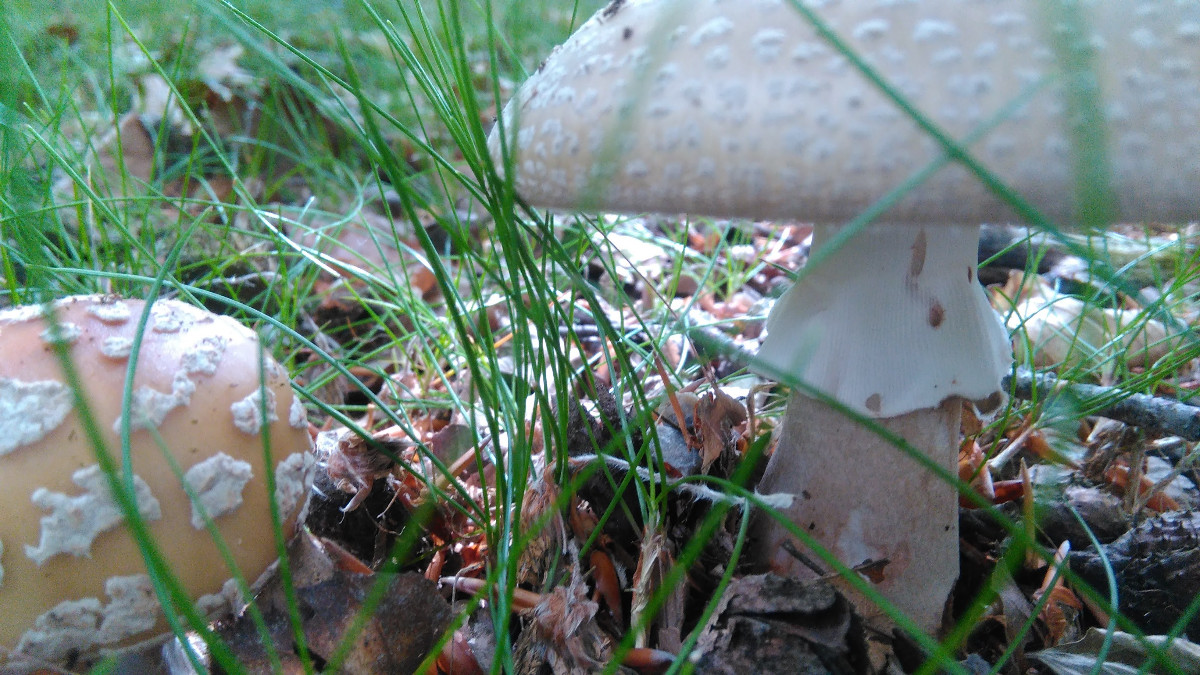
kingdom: Fungi
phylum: Basidiomycota
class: Agaricomycetes
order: Agaricales
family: Amanitaceae
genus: Amanita
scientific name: Amanita rubescens
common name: rødmende fluesvamp
